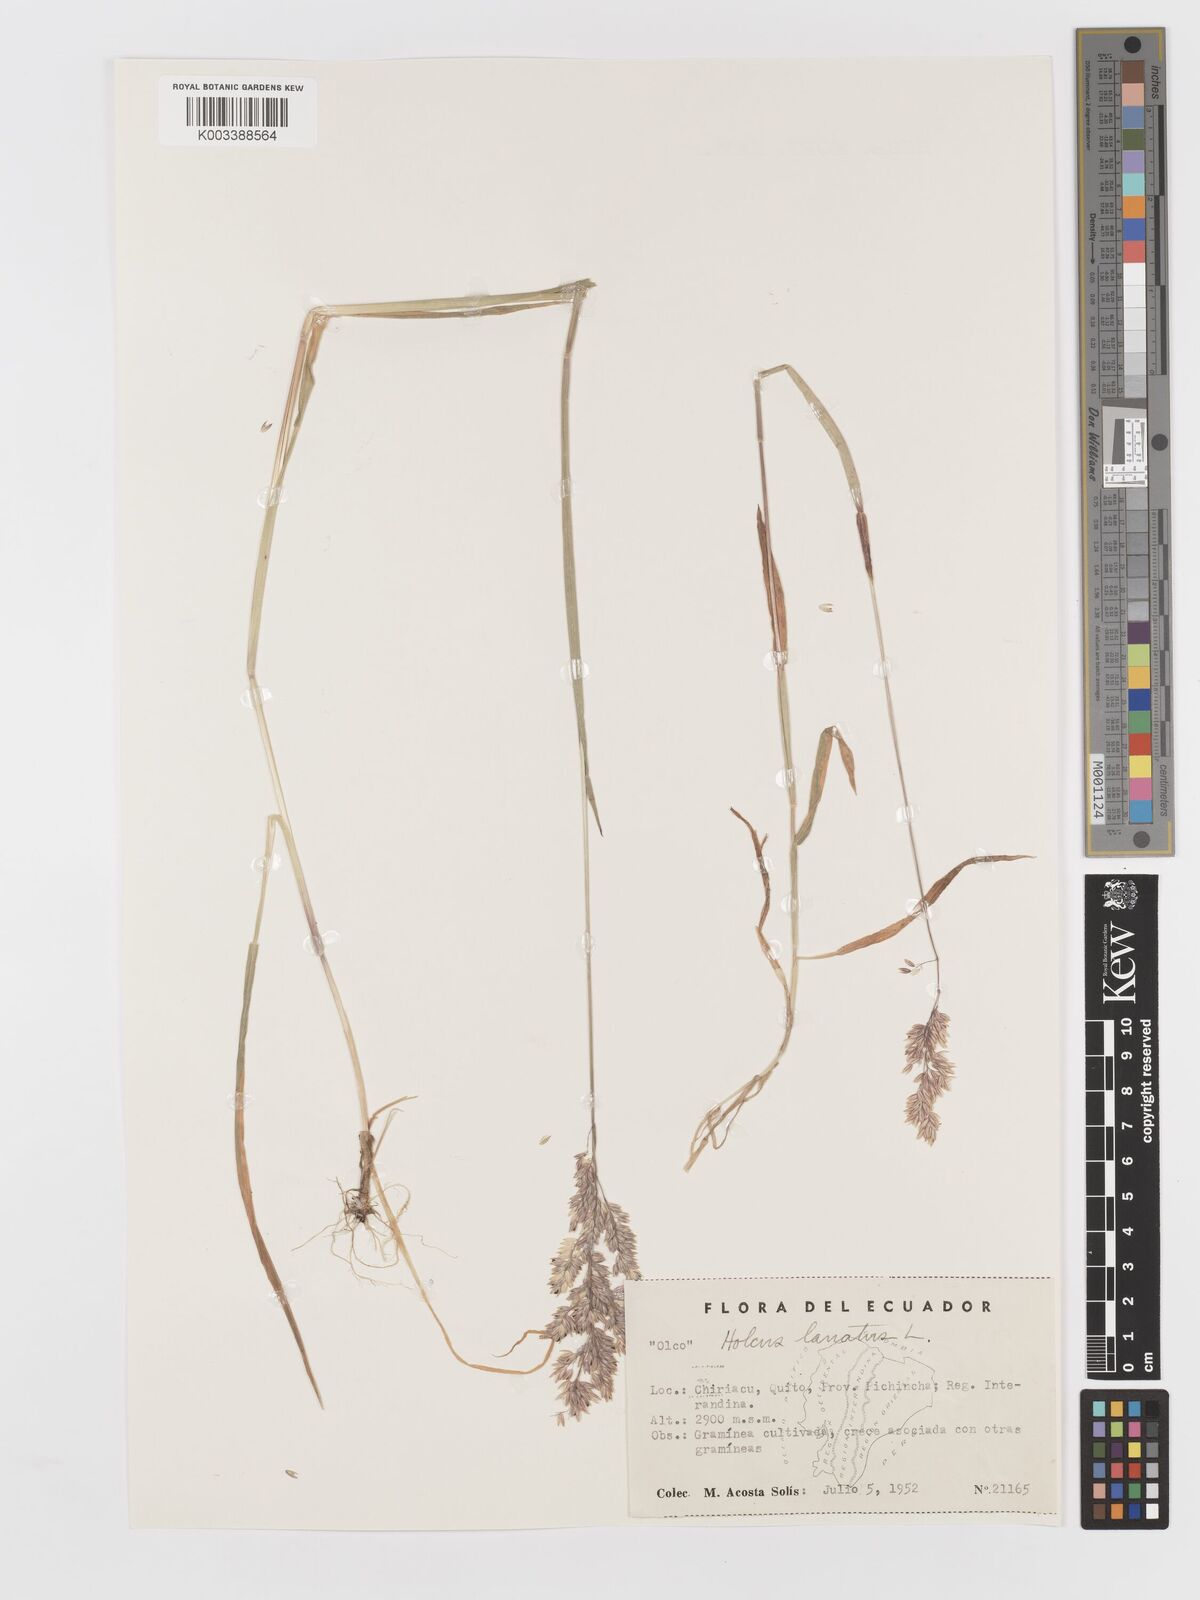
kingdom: Plantae
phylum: Tracheophyta
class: Liliopsida
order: Poales
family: Poaceae
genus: Holcus
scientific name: Holcus lanatus
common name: Yorkshire-fog
